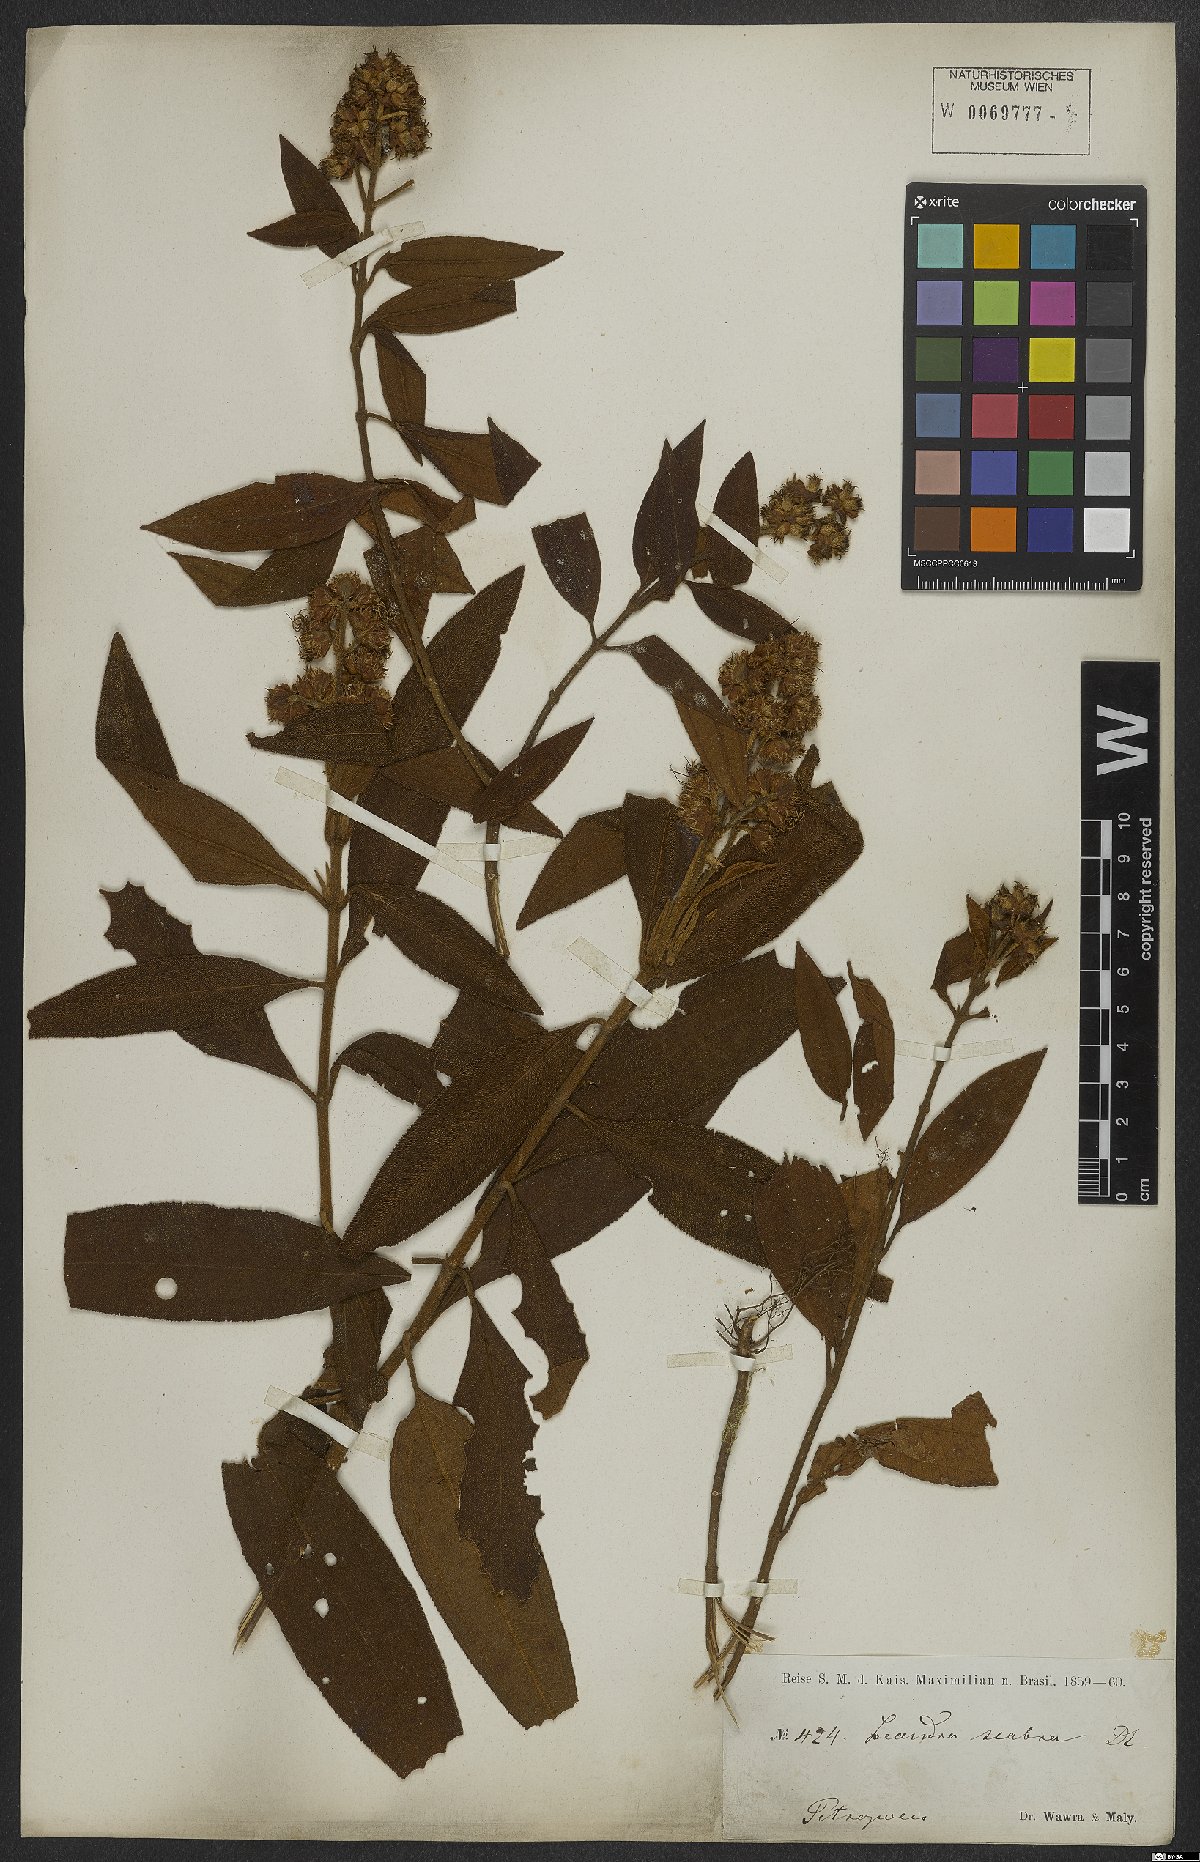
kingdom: Plantae
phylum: Tracheophyta
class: Magnoliopsida
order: Myrtales
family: Melastomataceae
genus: Miconia
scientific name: Miconia melastomoides
